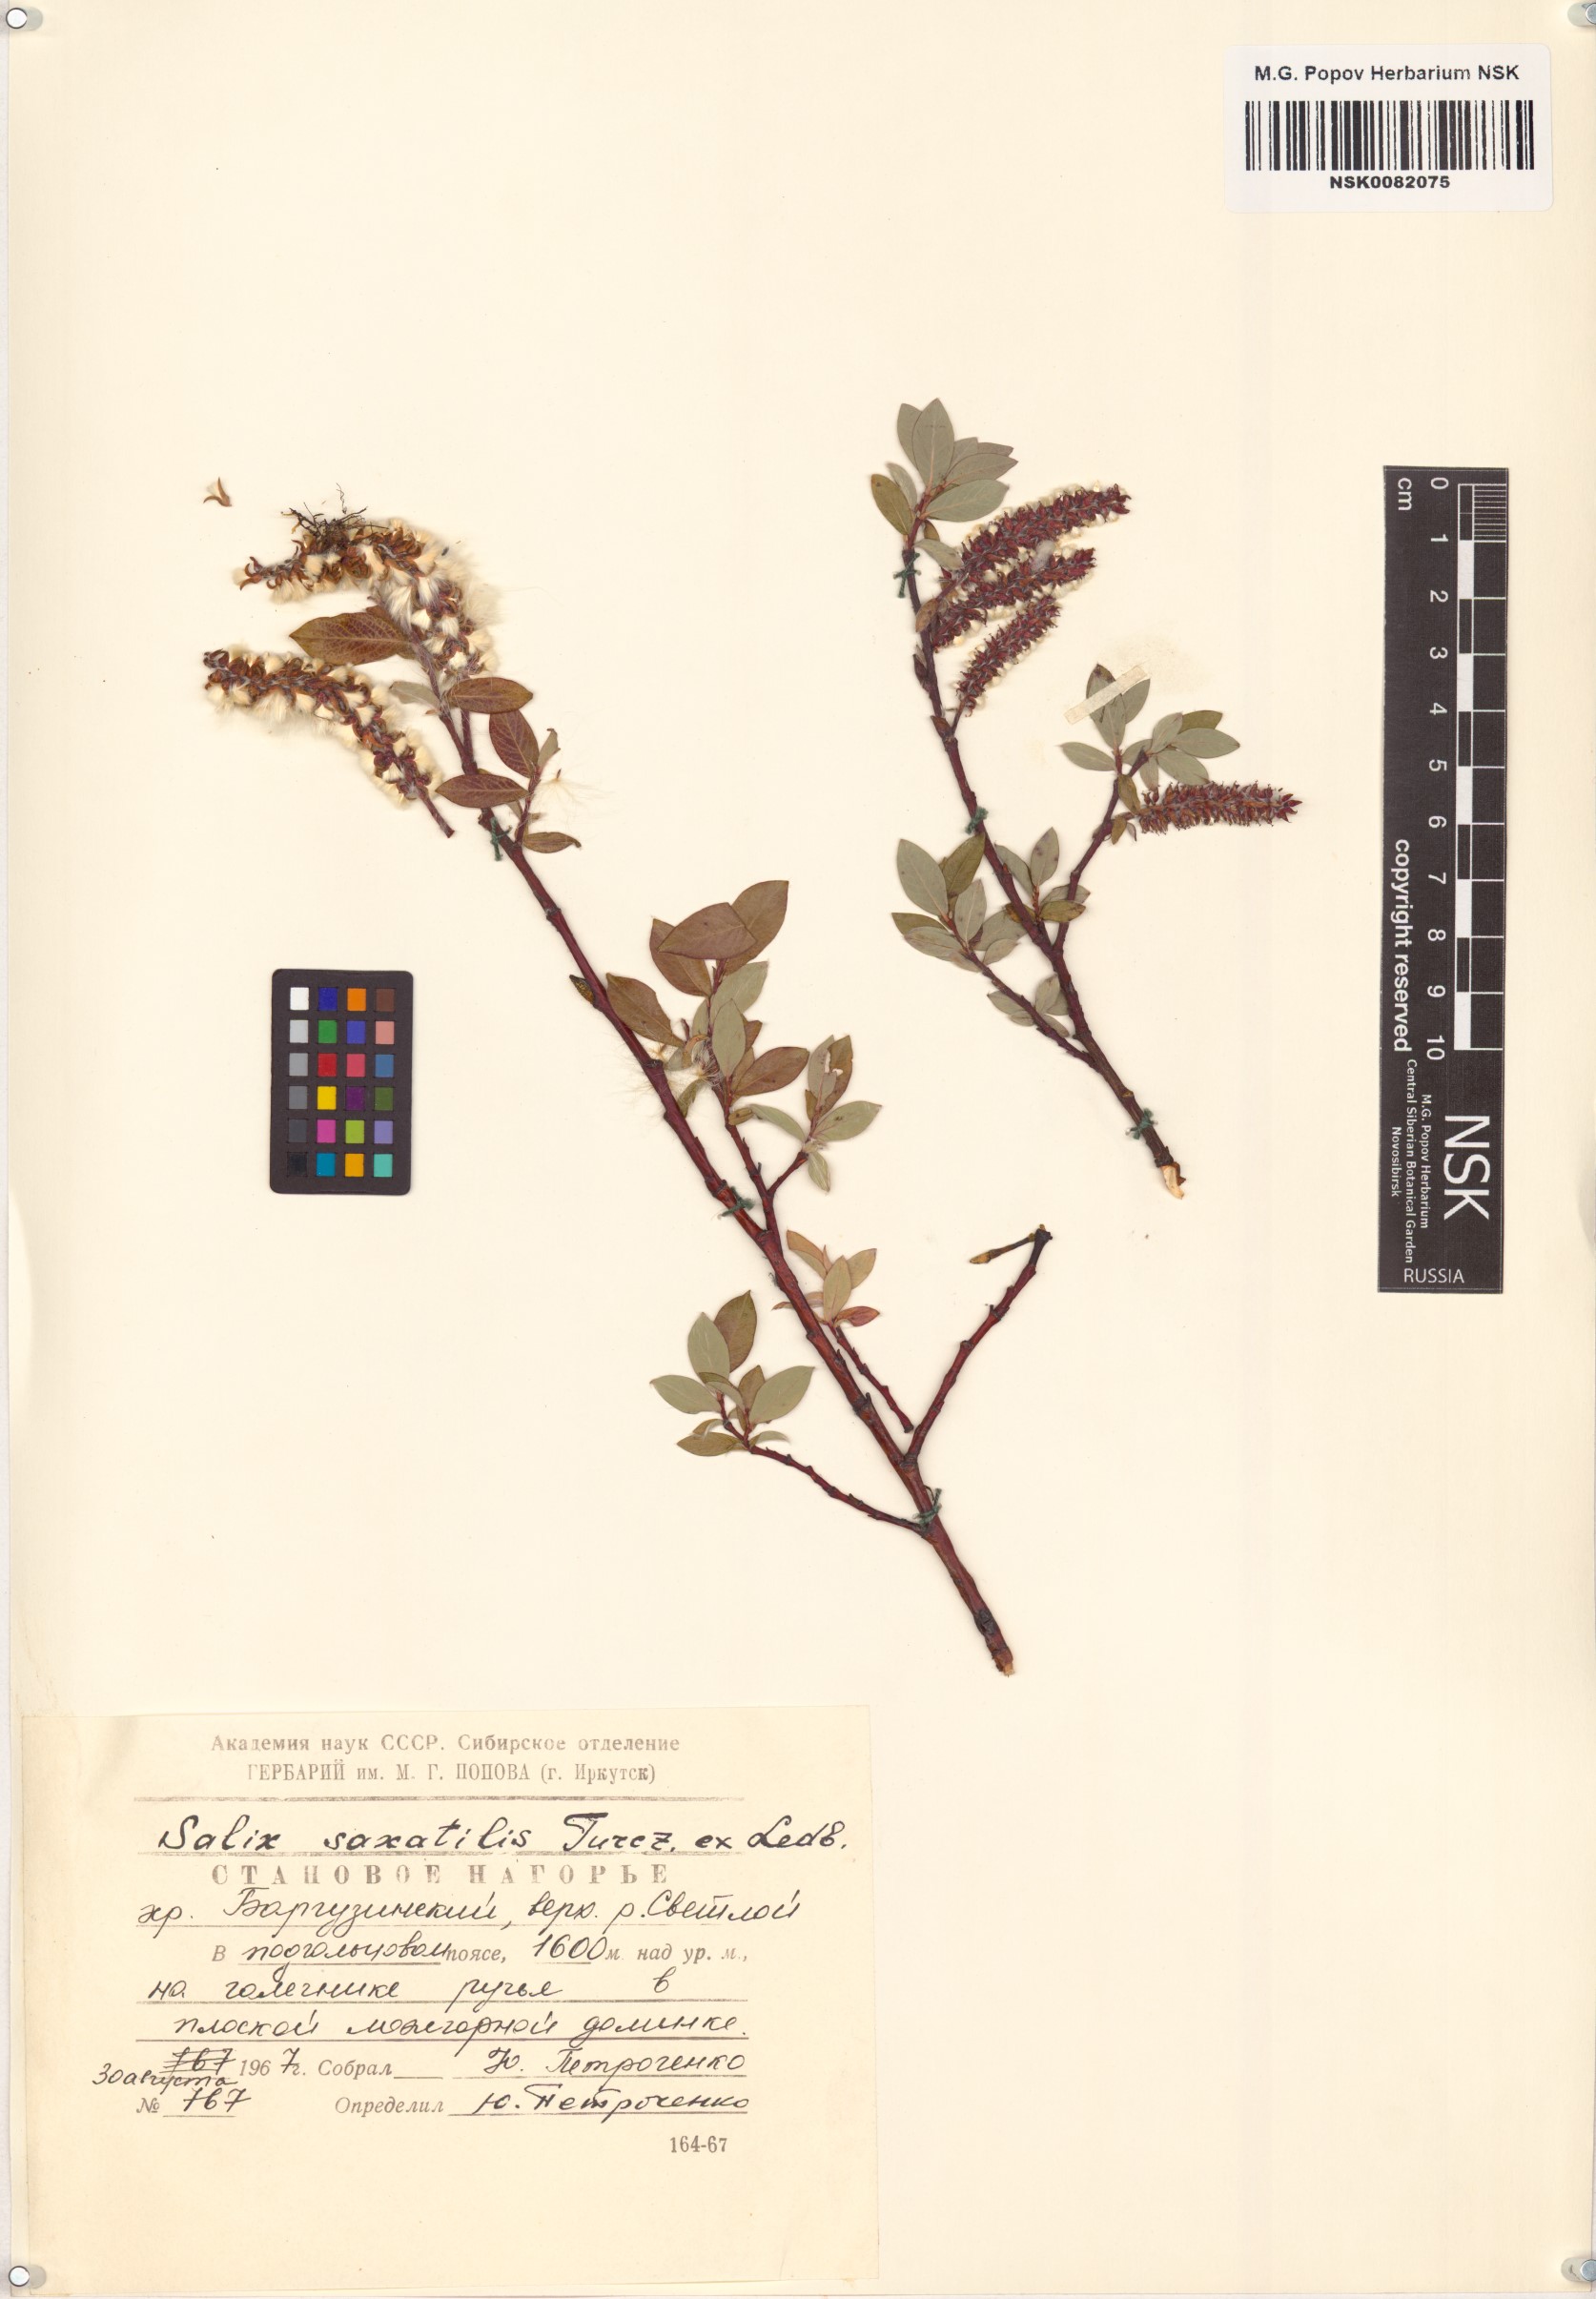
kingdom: Plantae
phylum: Tracheophyta
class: Magnoliopsida
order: Malpighiales
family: Salicaceae
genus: Salix
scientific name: Salix saxatilis
